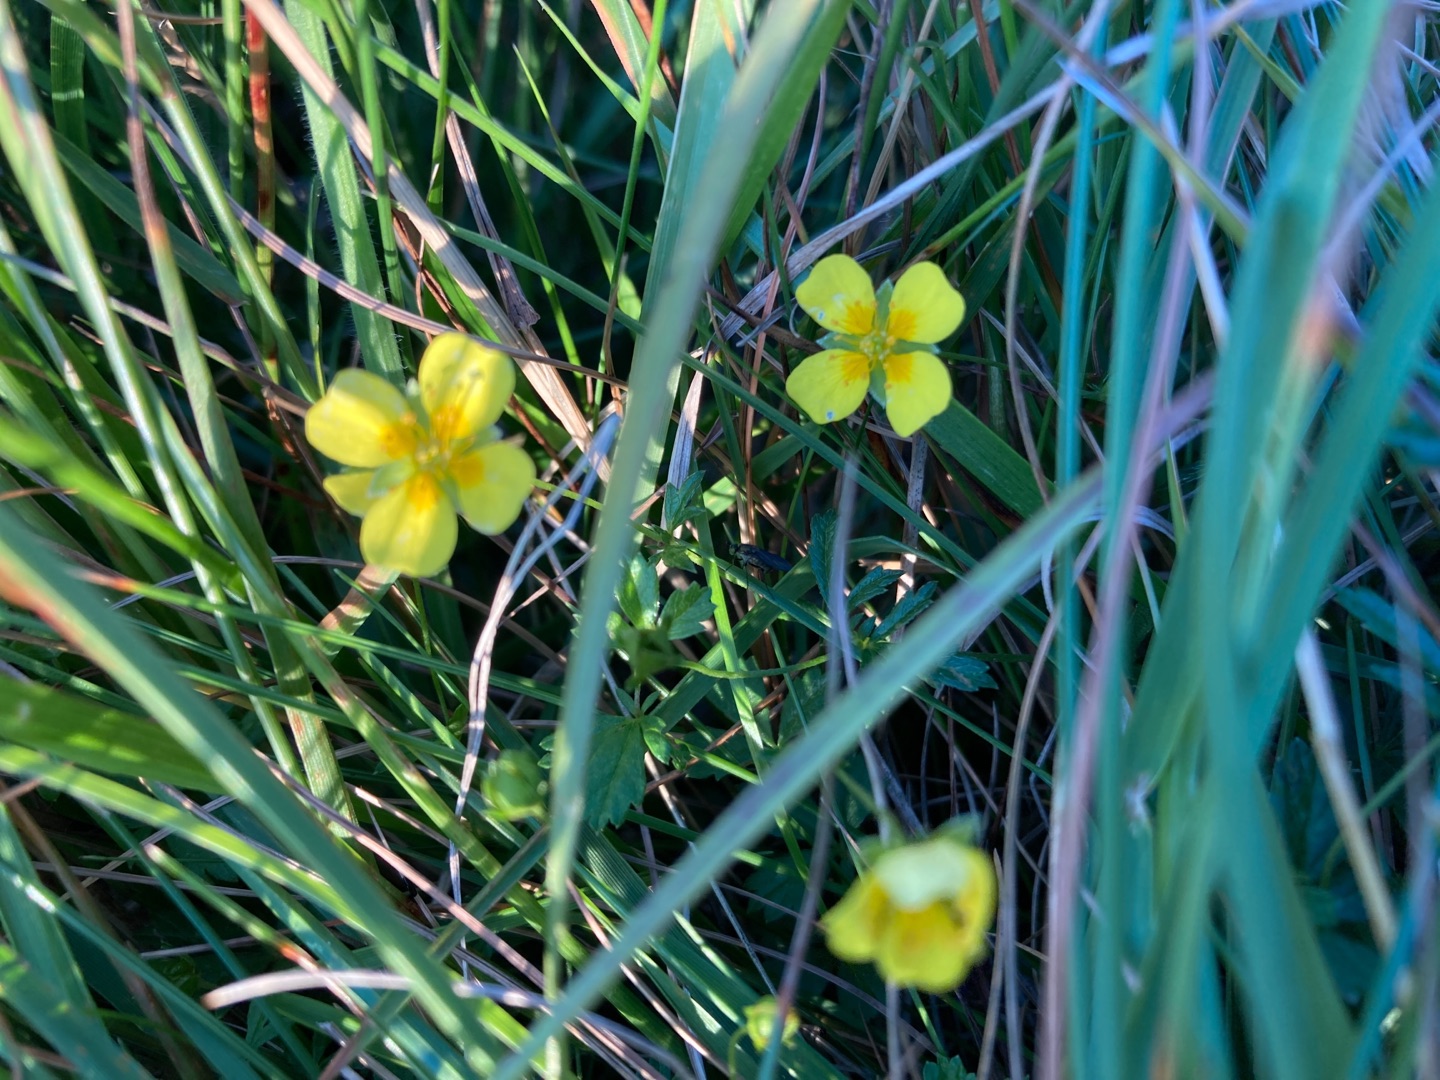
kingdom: Plantae
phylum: Tracheophyta
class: Magnoliopsida
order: Rosales
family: Rosaceae
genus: Potentilla
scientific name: Potentilla erecta
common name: Tormentil
